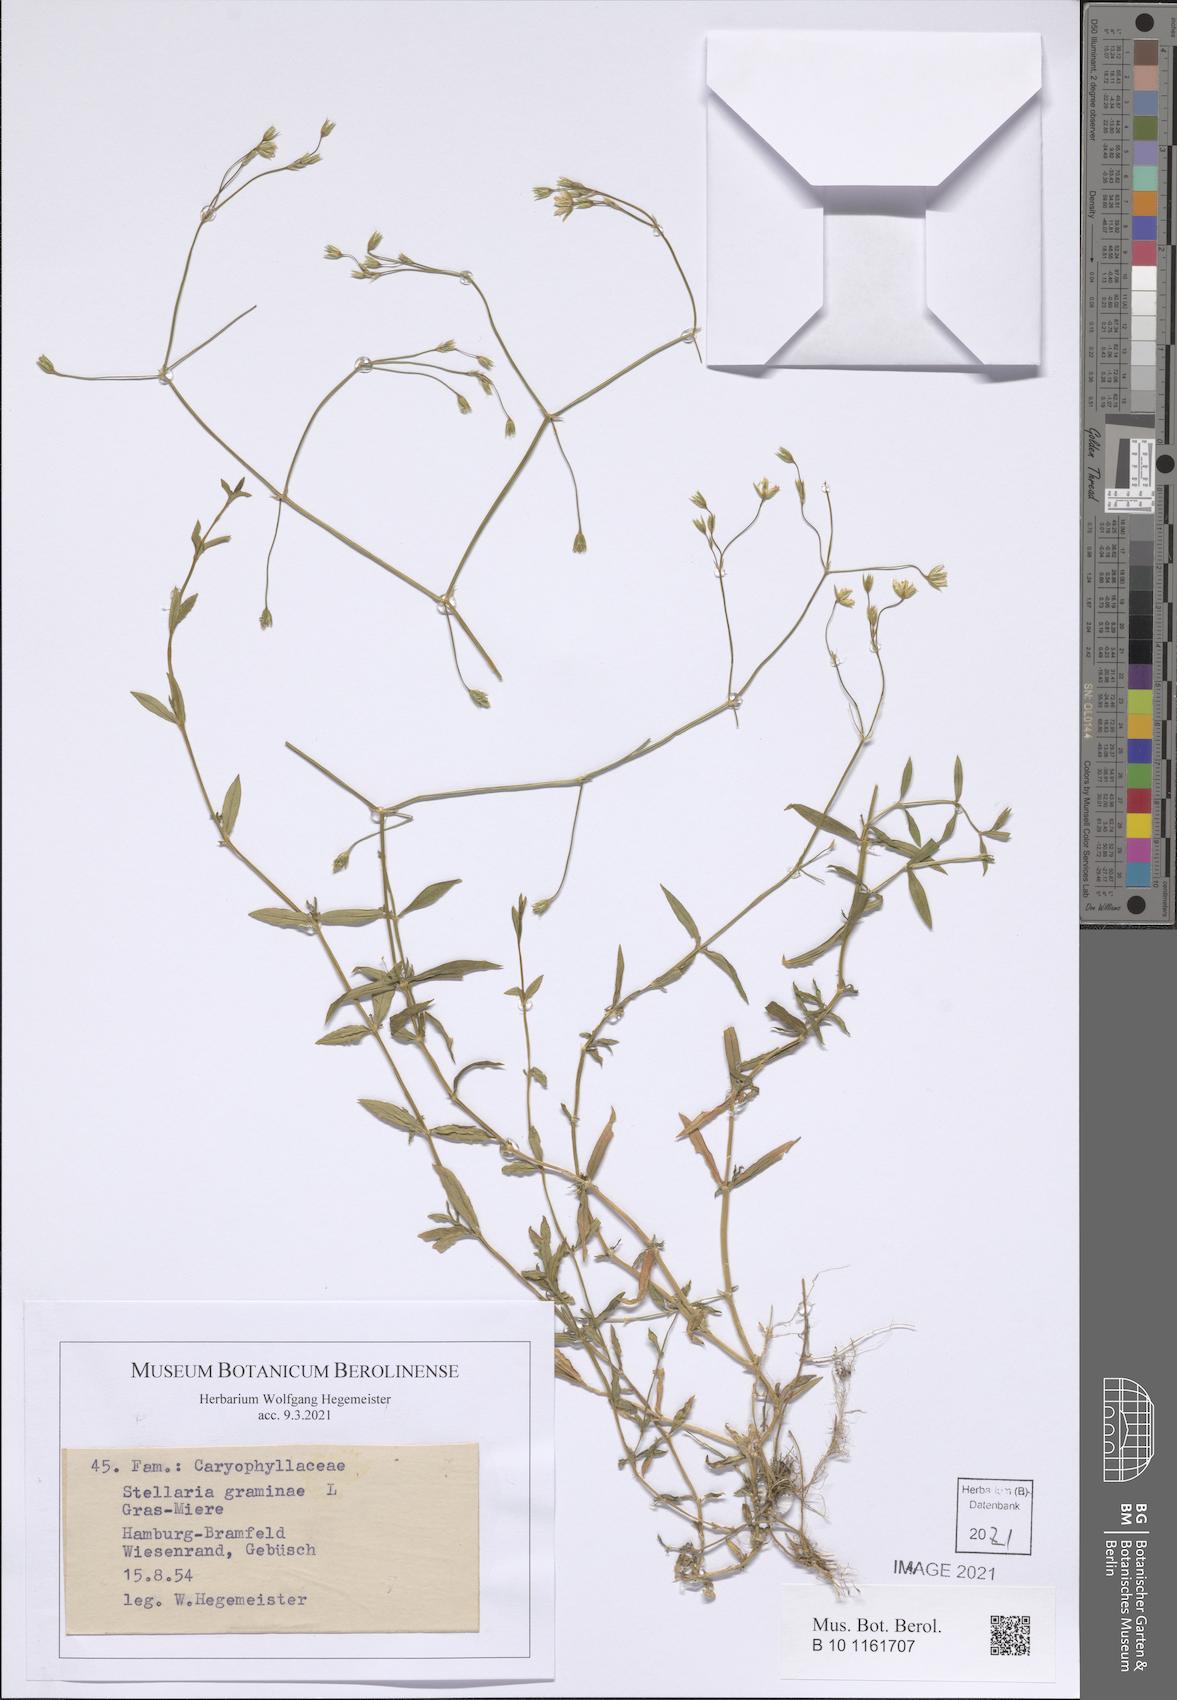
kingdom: Plantae
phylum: Tracheophyta
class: Magnoliopsida
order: Caryophyllales
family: Caryophyllaceae
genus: Stellaria
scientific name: Stellaria graminea
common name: Grass-like starwort
